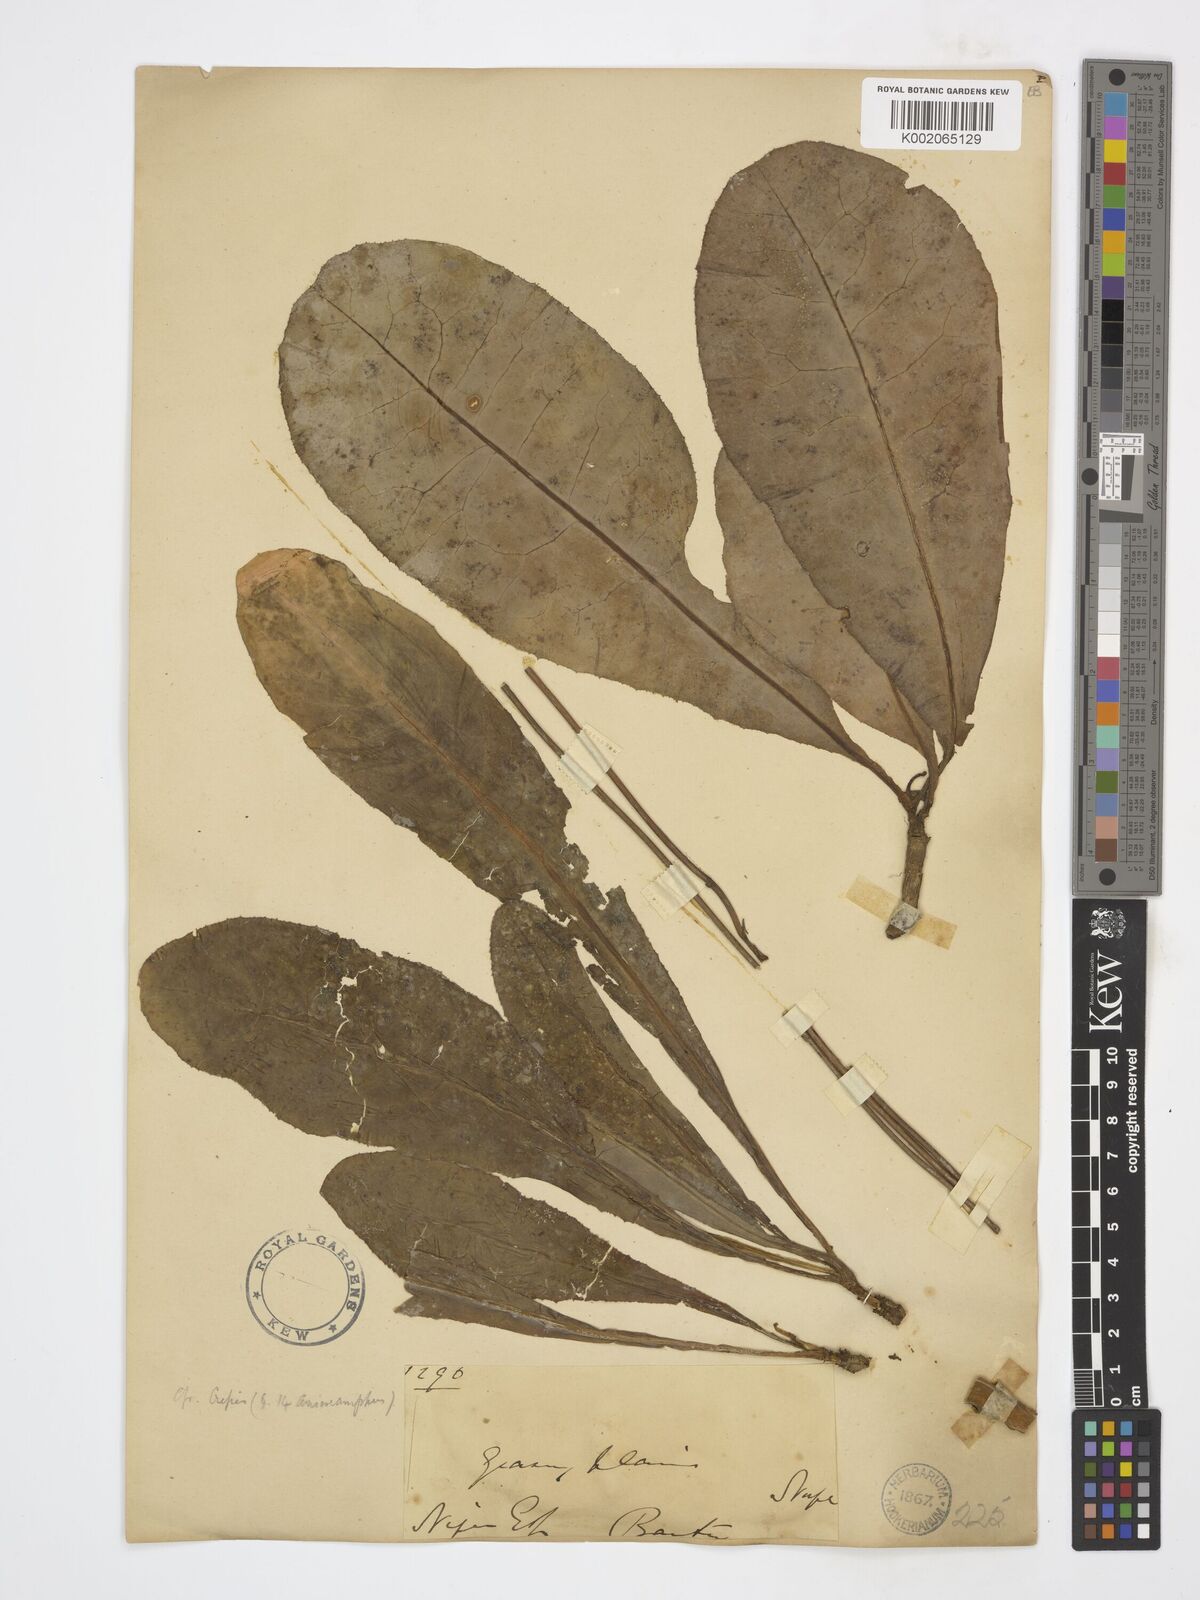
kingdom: Plantae
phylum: Tracheophyta
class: Magnoliopsida
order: Asterales
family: Asteraceae
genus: Launaea
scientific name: Launaea
